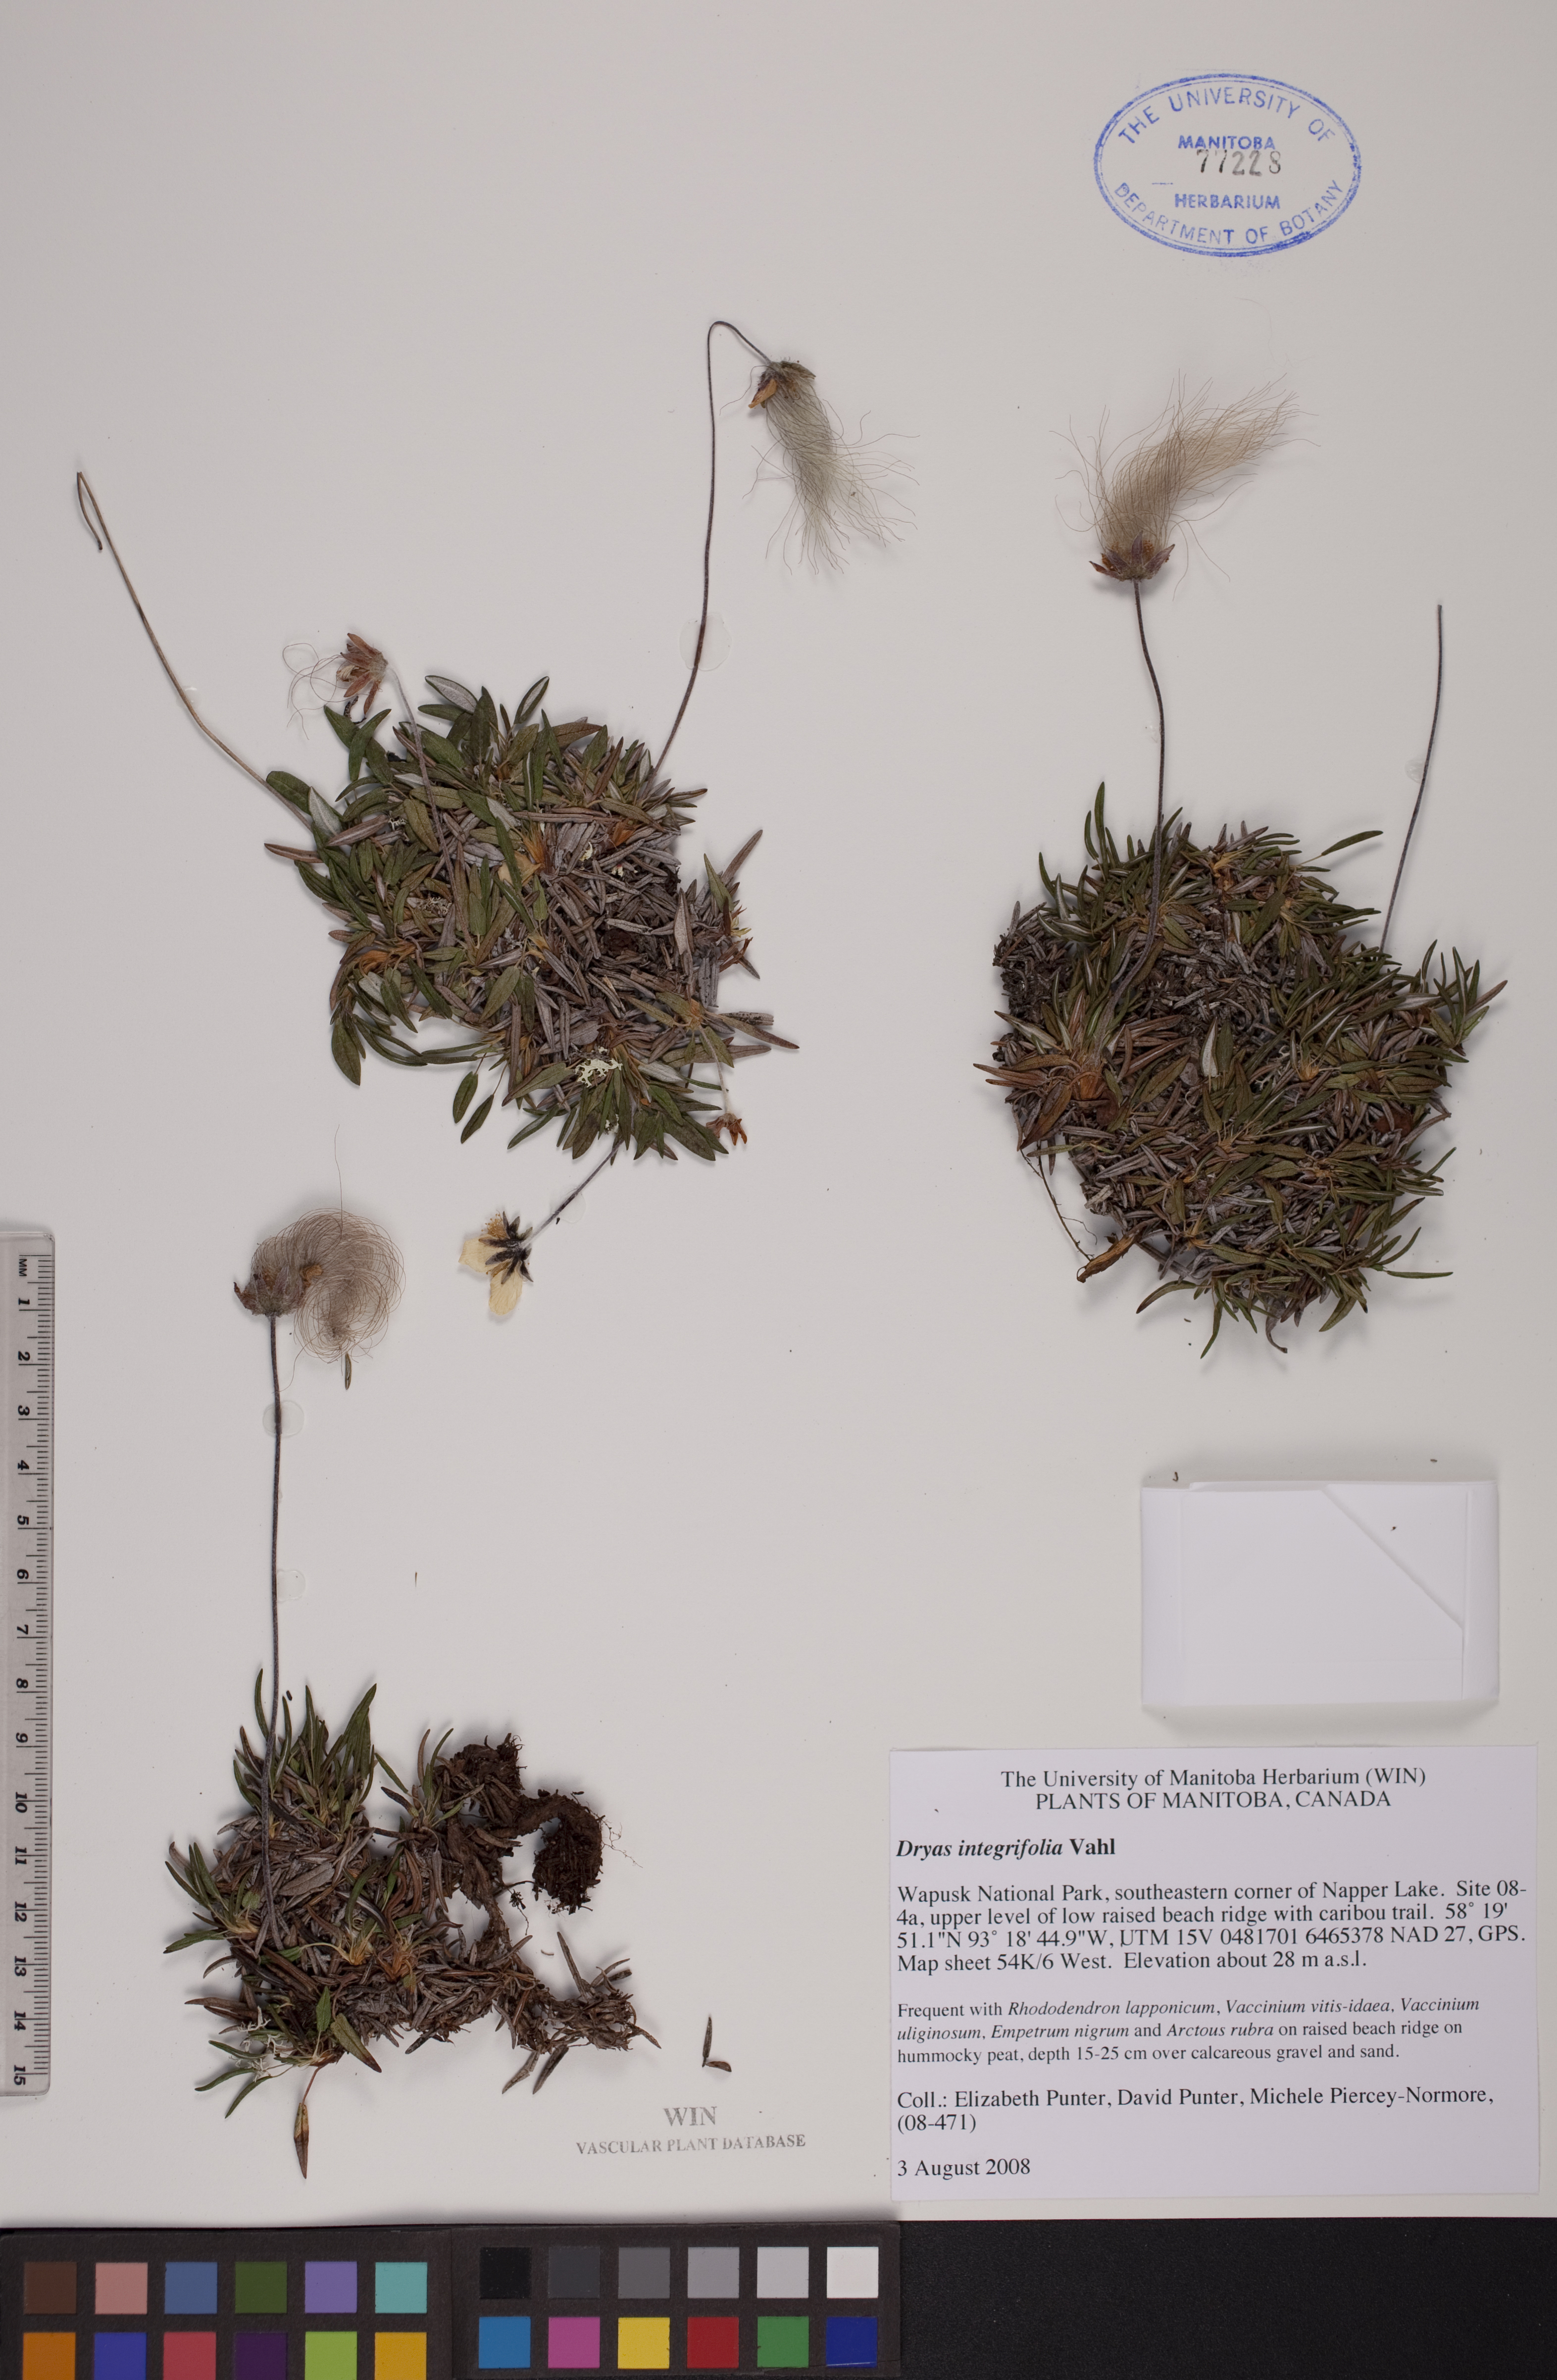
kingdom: Plantae
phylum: Tracheophyta
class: Magnoliopsida
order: Rosales
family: Rosaceae
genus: Dryas
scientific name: Dryas integrifolia
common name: Entire-leaved mountain avens
